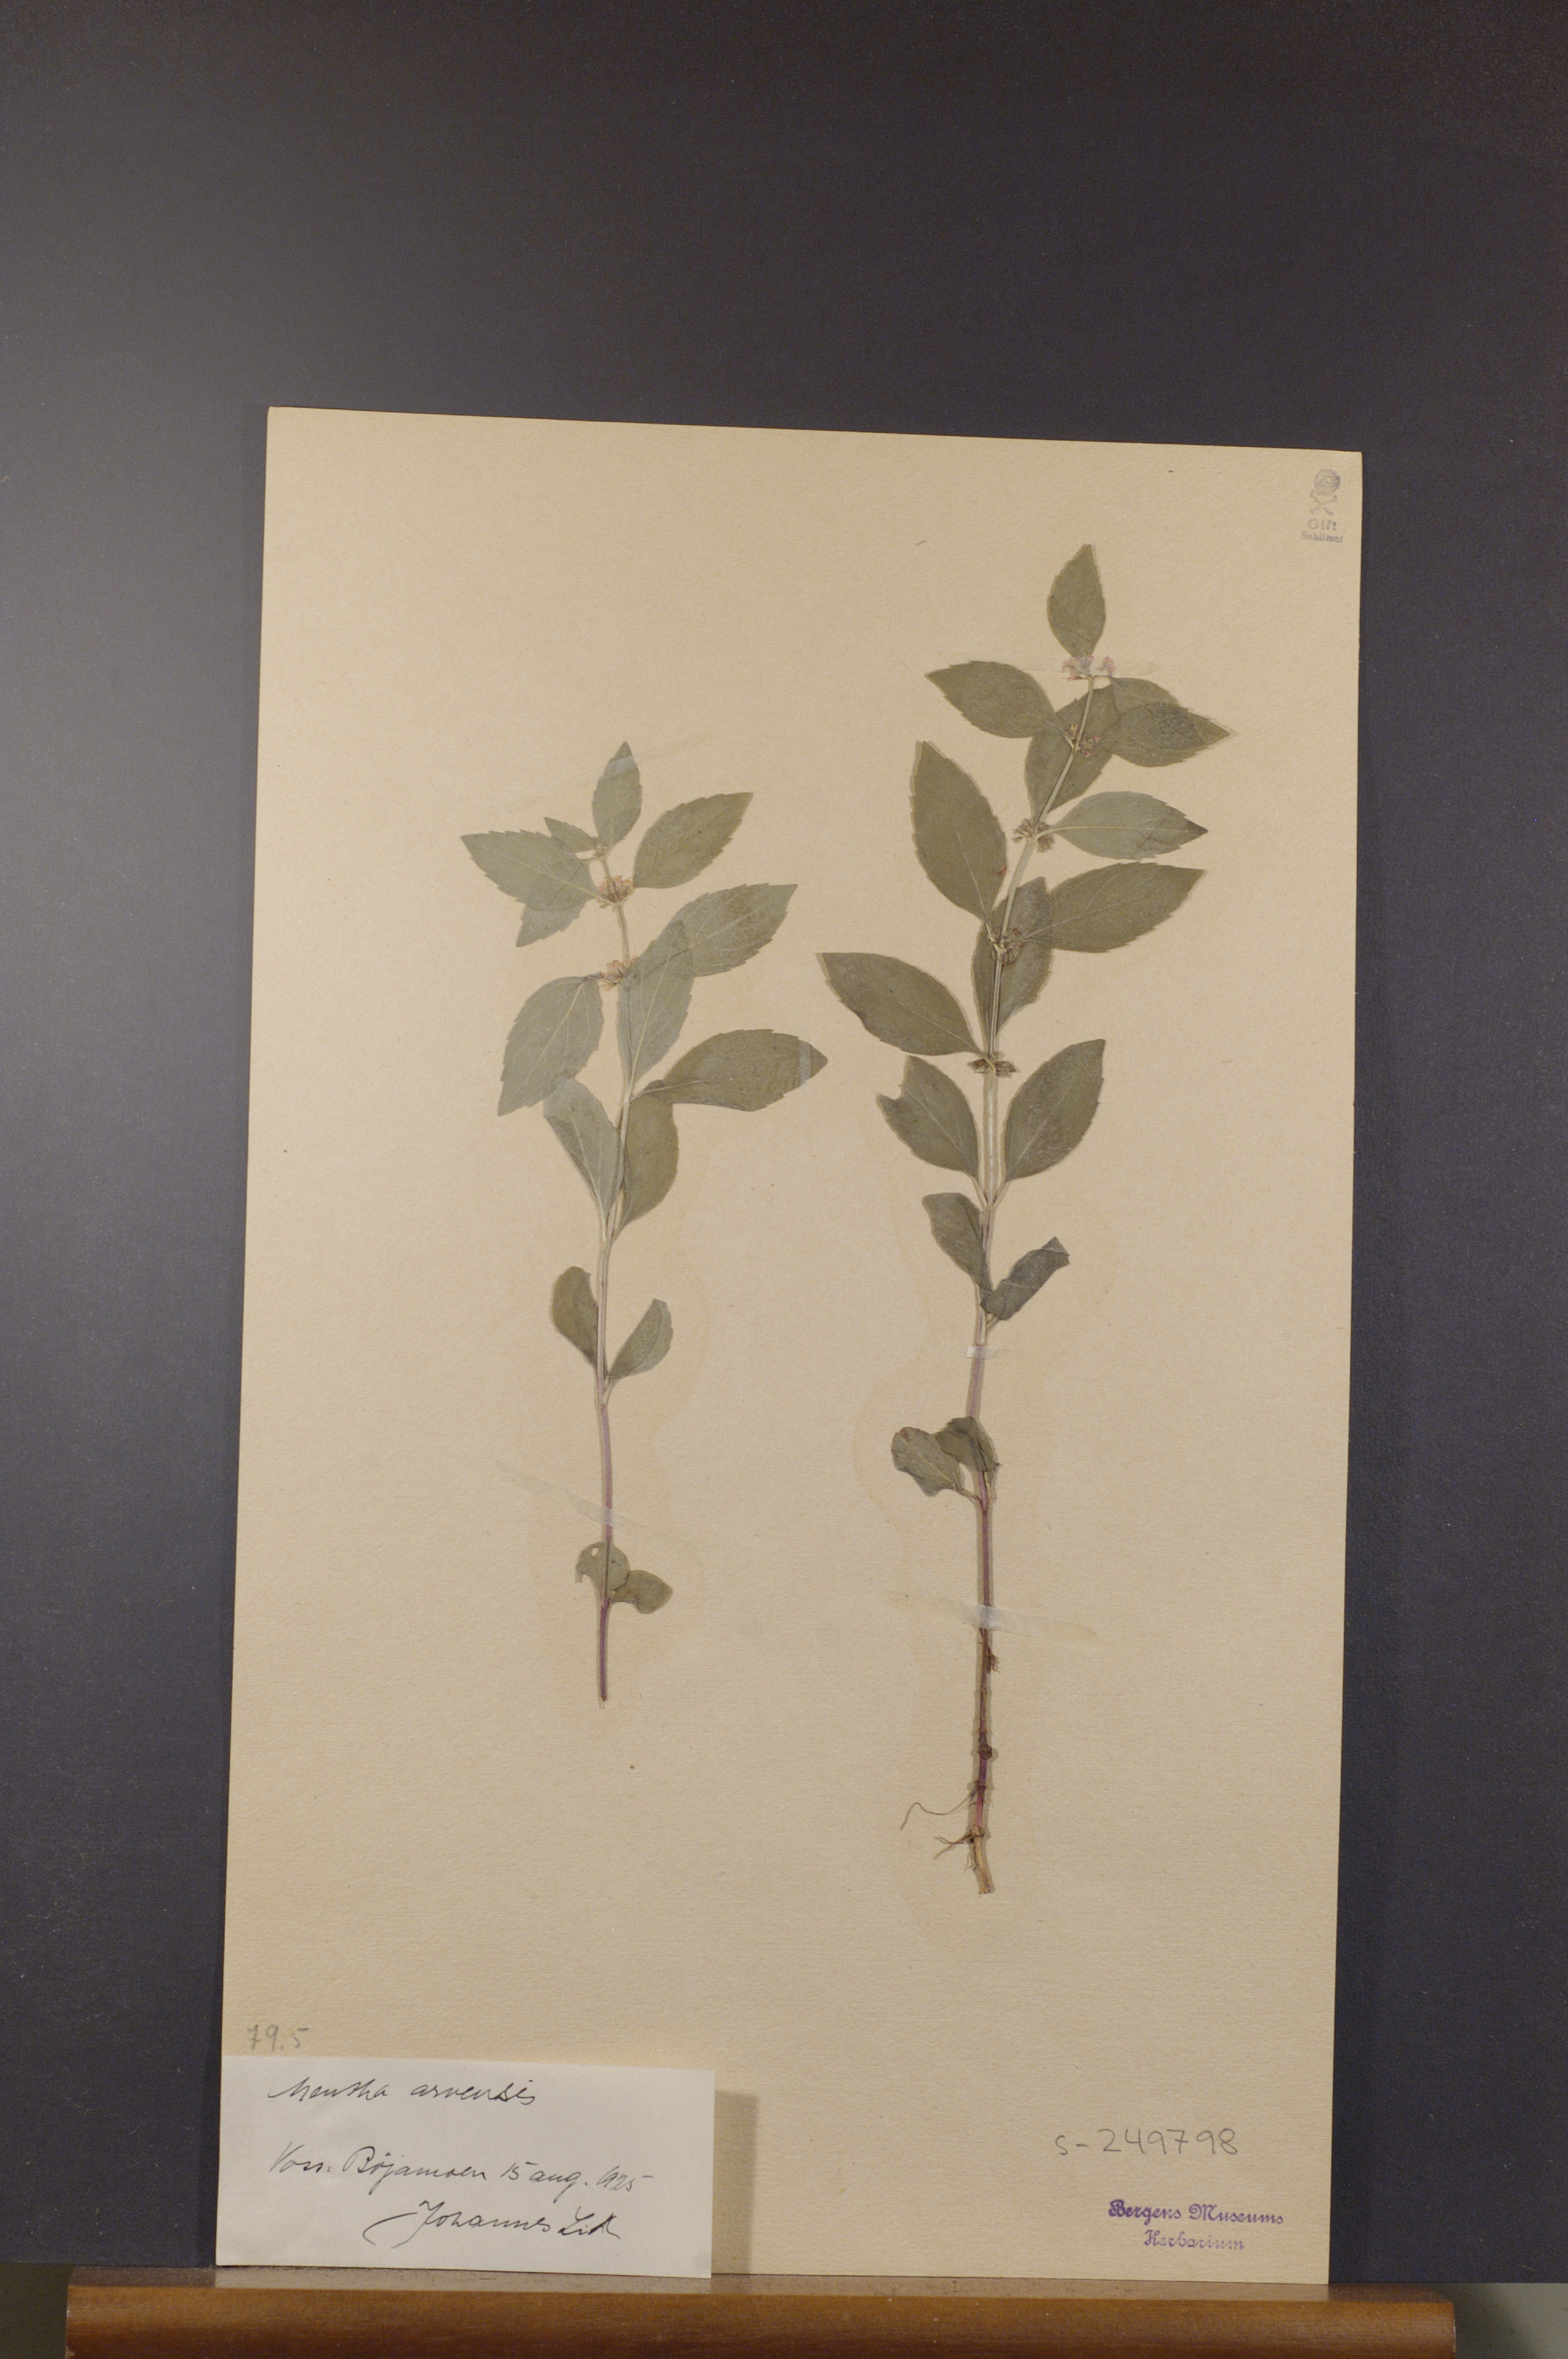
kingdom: Plantae
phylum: Tracheophyta
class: Magnoliopsida
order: Lamiales
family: Lamiaceae
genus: Mentha
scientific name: Mentha arvensis
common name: Corn mint
